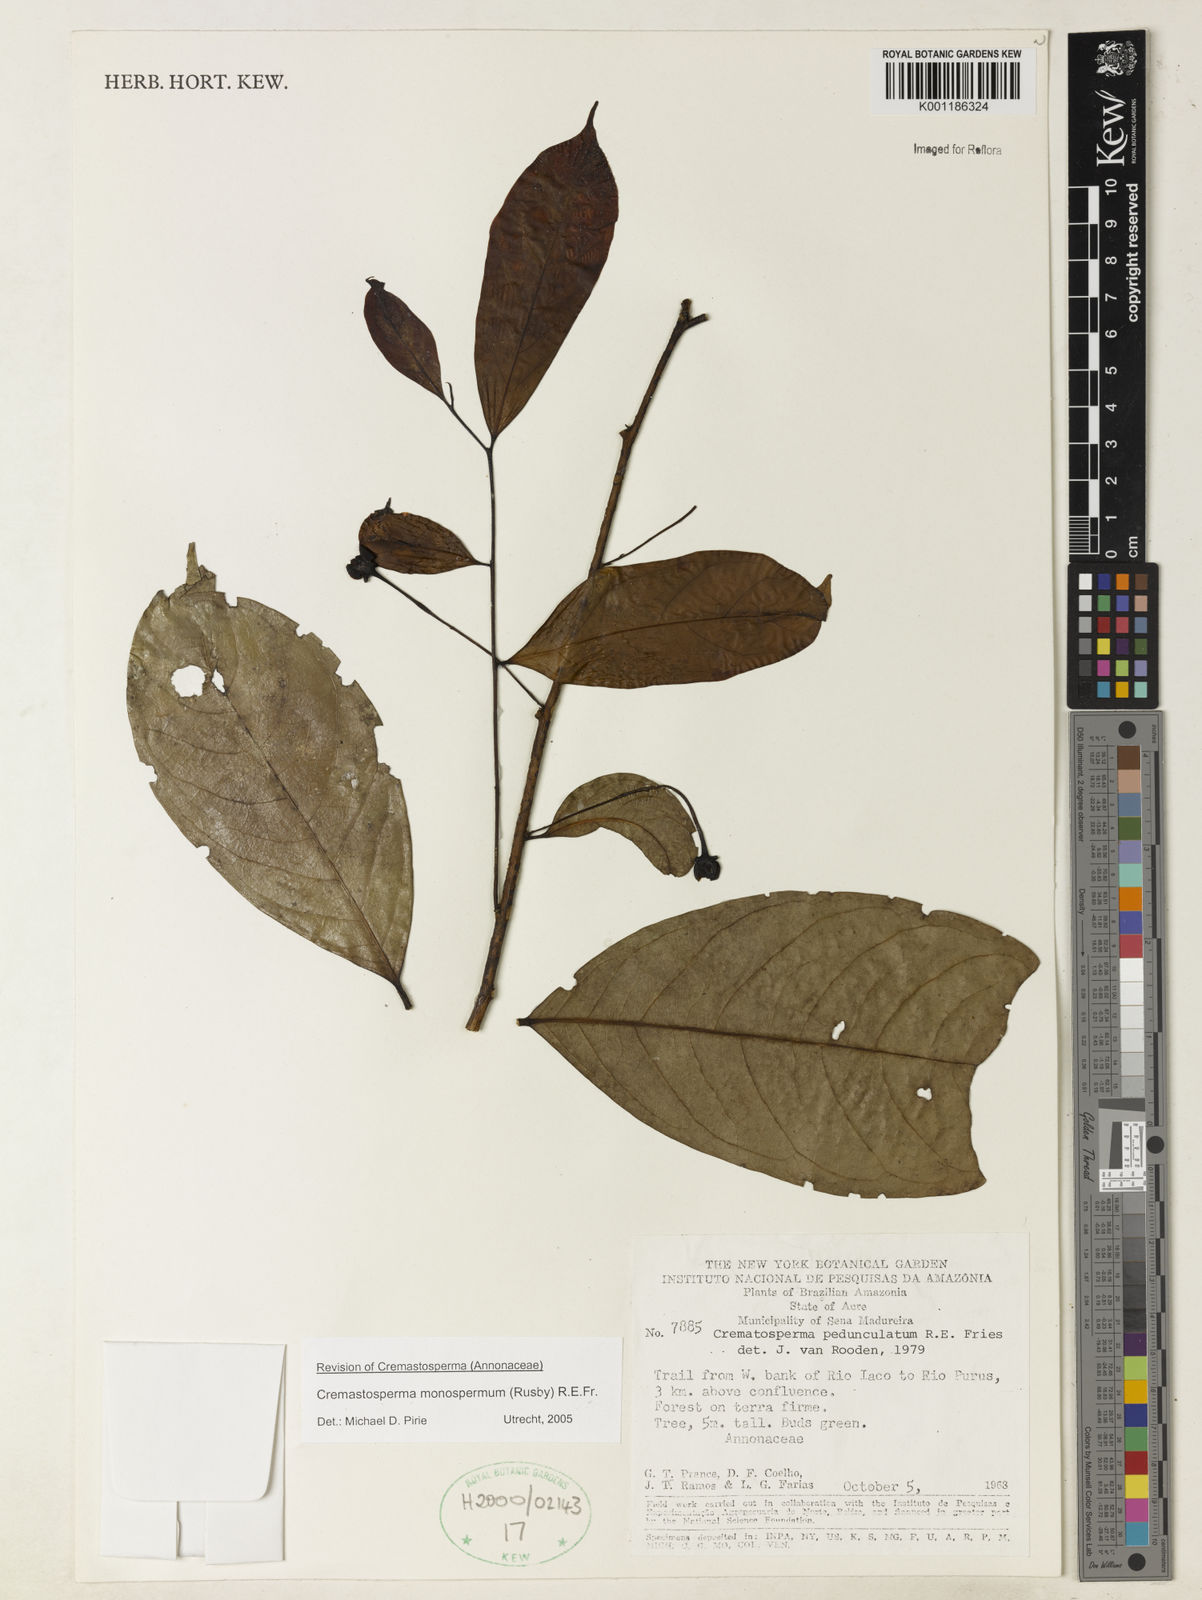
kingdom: Plantae
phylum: Tracheophyta
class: Magnoliopsida
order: Magnoliales
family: Annonaceae
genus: Cremastosperma
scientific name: Cremastosperma monospermum
